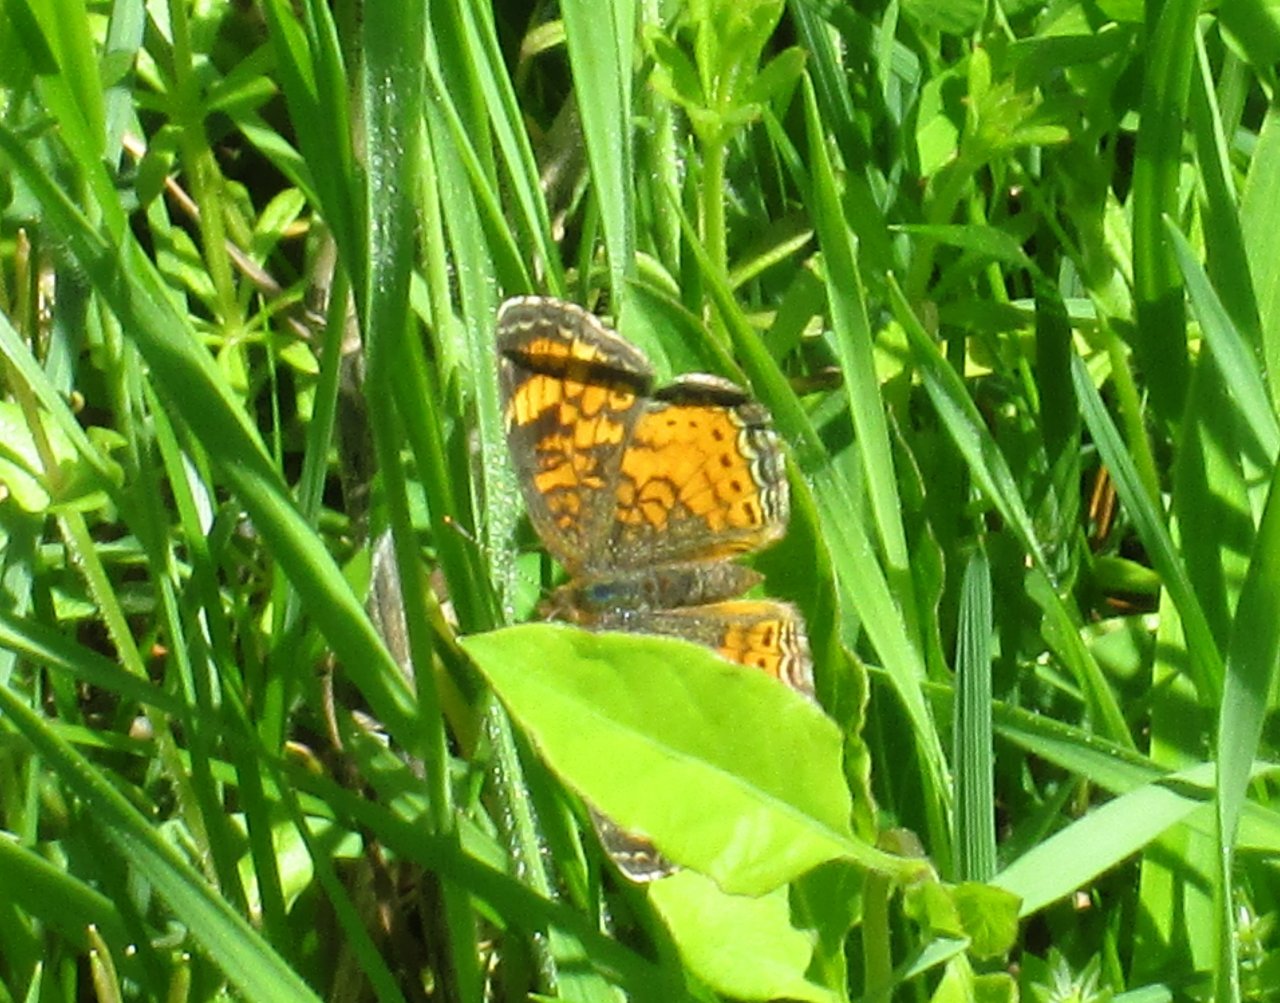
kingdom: Animalia
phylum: Arthropoda
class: Insecta
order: Lepidoptera
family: Nymphalidae
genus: Phyciodes
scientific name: Phyciodes tharos
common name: Pearl Crescent
